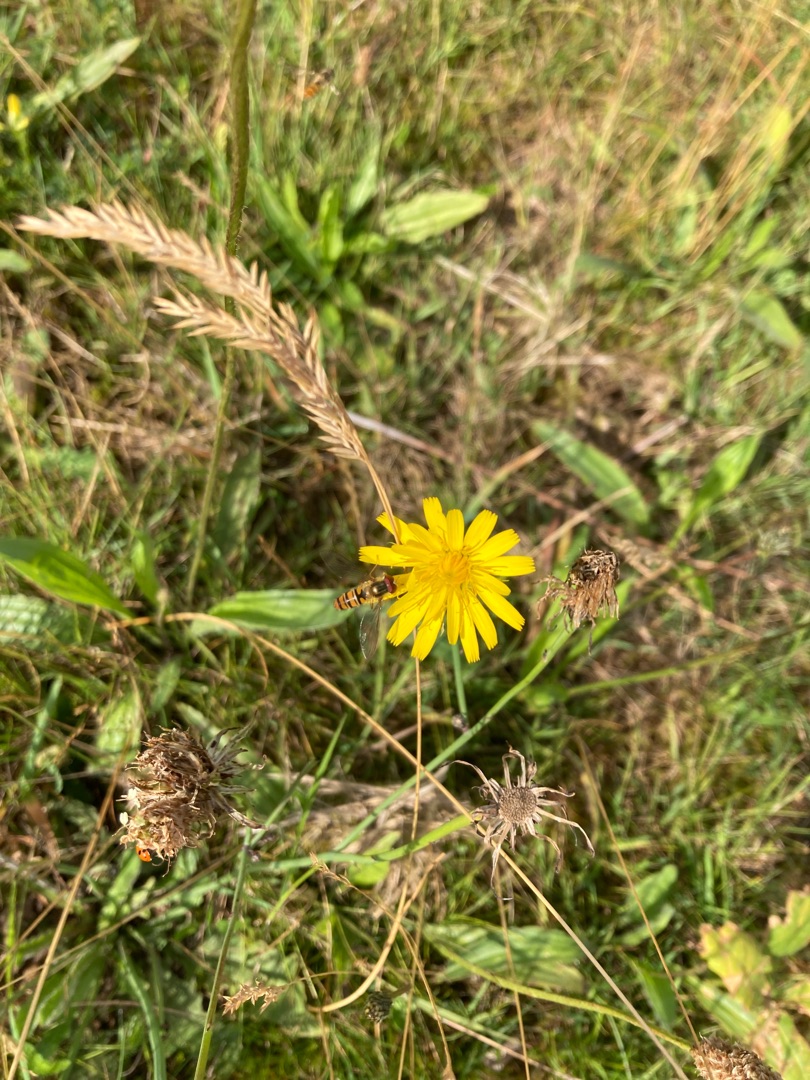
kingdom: Animalia
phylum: Arthropoda
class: Insecta
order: Diptera
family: Syrphidae
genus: Episyrphus
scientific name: Episyrphus balteatus
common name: Dobbeltbåndet svirreflue
